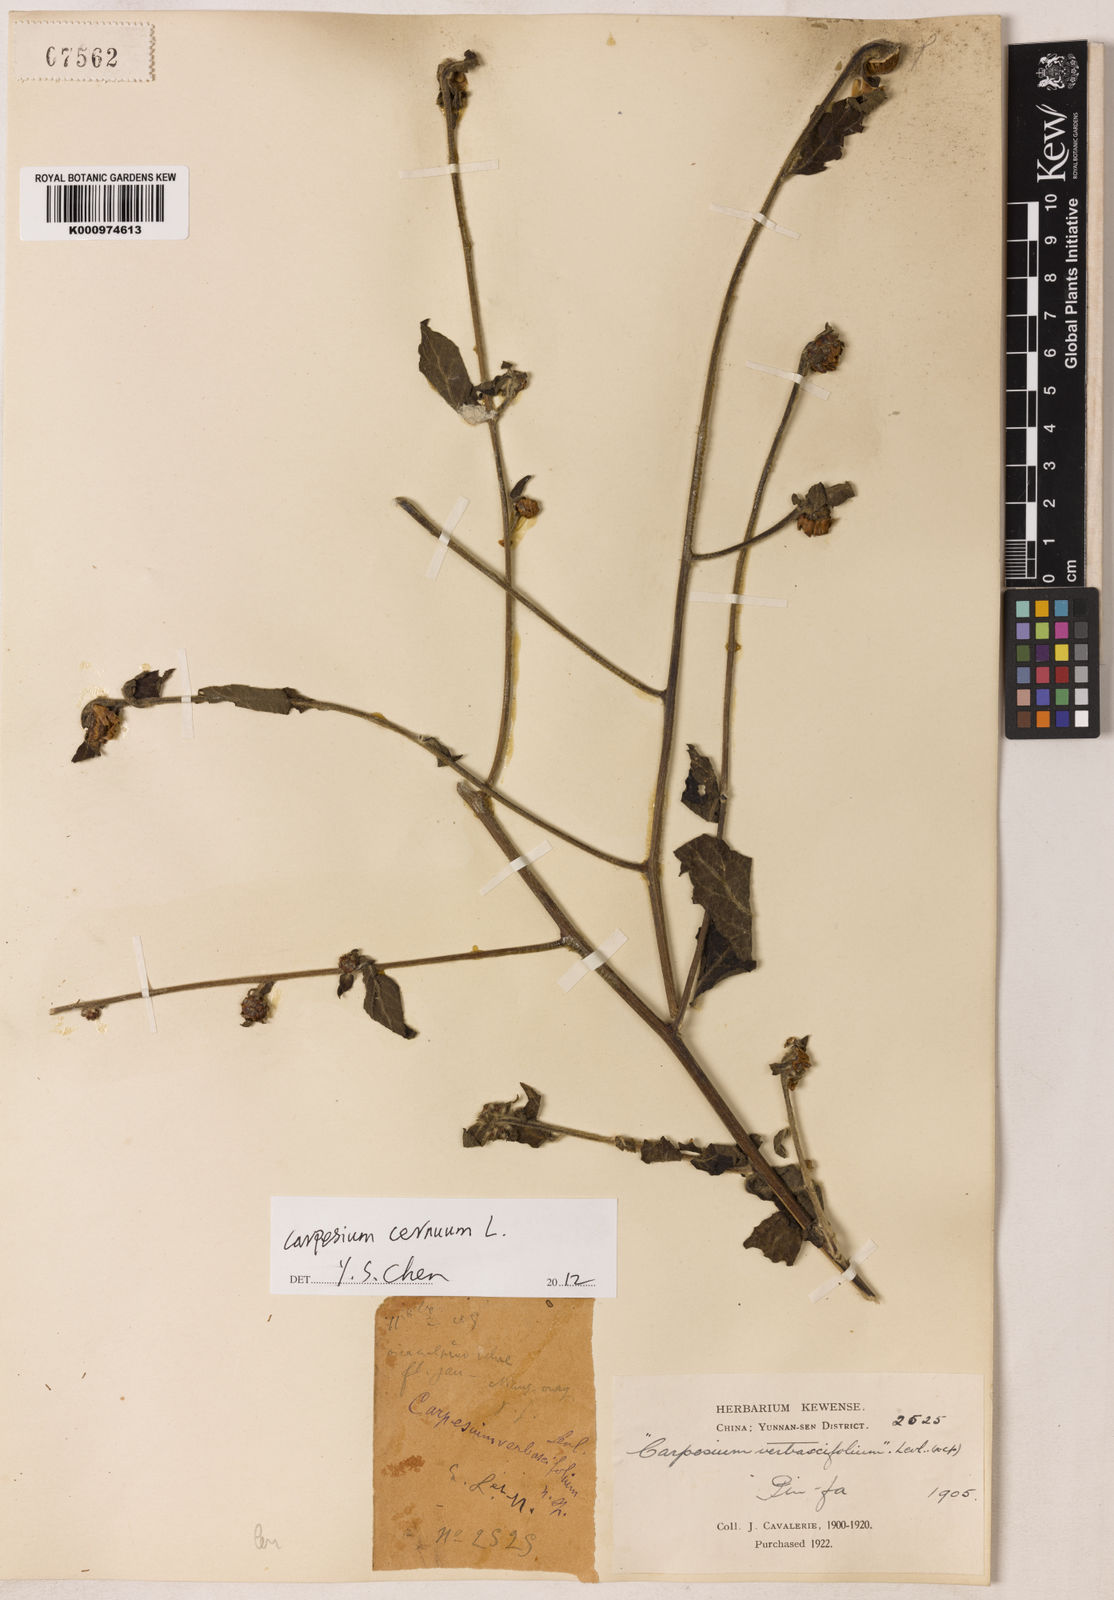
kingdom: Plantae
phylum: Tracheophyta
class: Magnoliopsida
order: Asterales
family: Asteraceae
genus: Carpesium
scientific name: Carpesium
